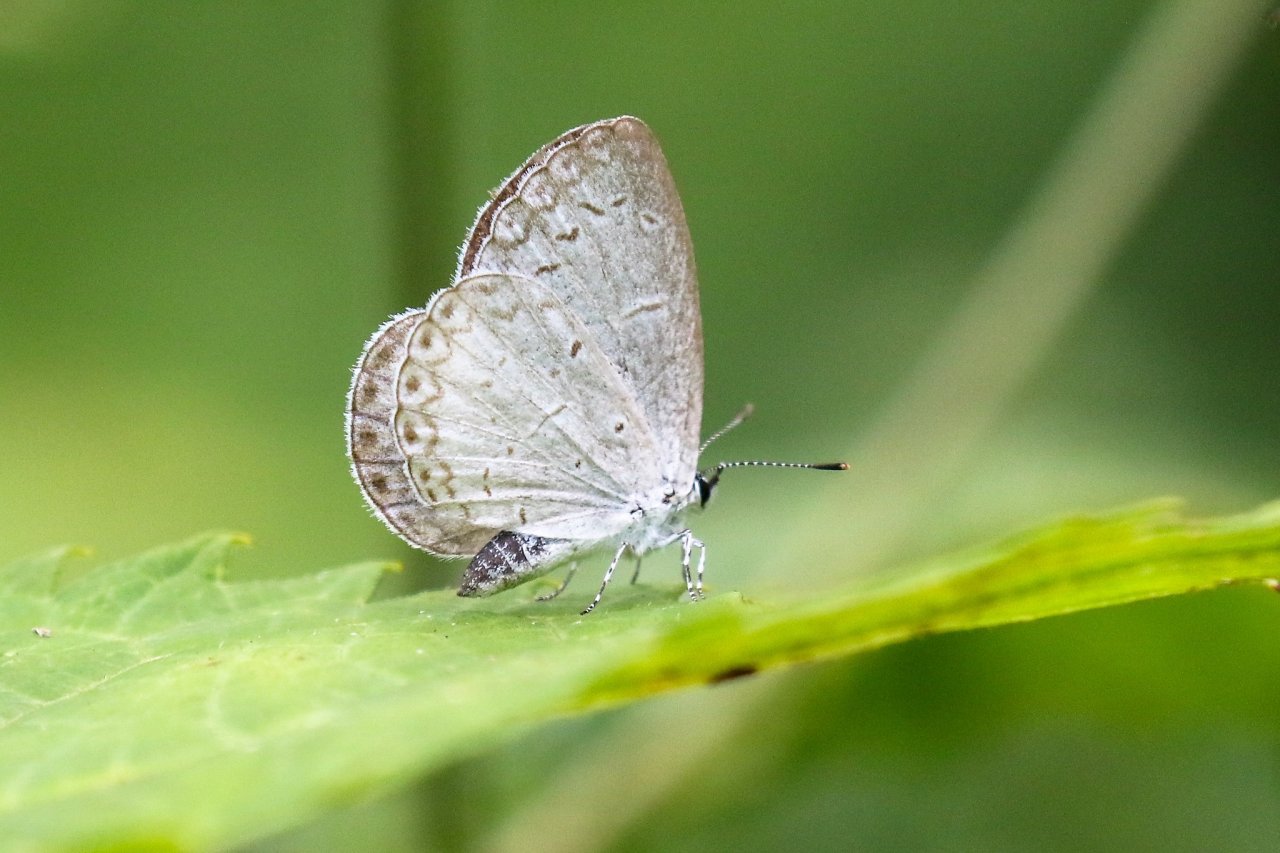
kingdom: Animalia
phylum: Arthropoda
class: Insecta
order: Lepidoptera
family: Lycaenidae
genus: Cyaniris
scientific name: Cyaniris neglecta
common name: Summer Azure
